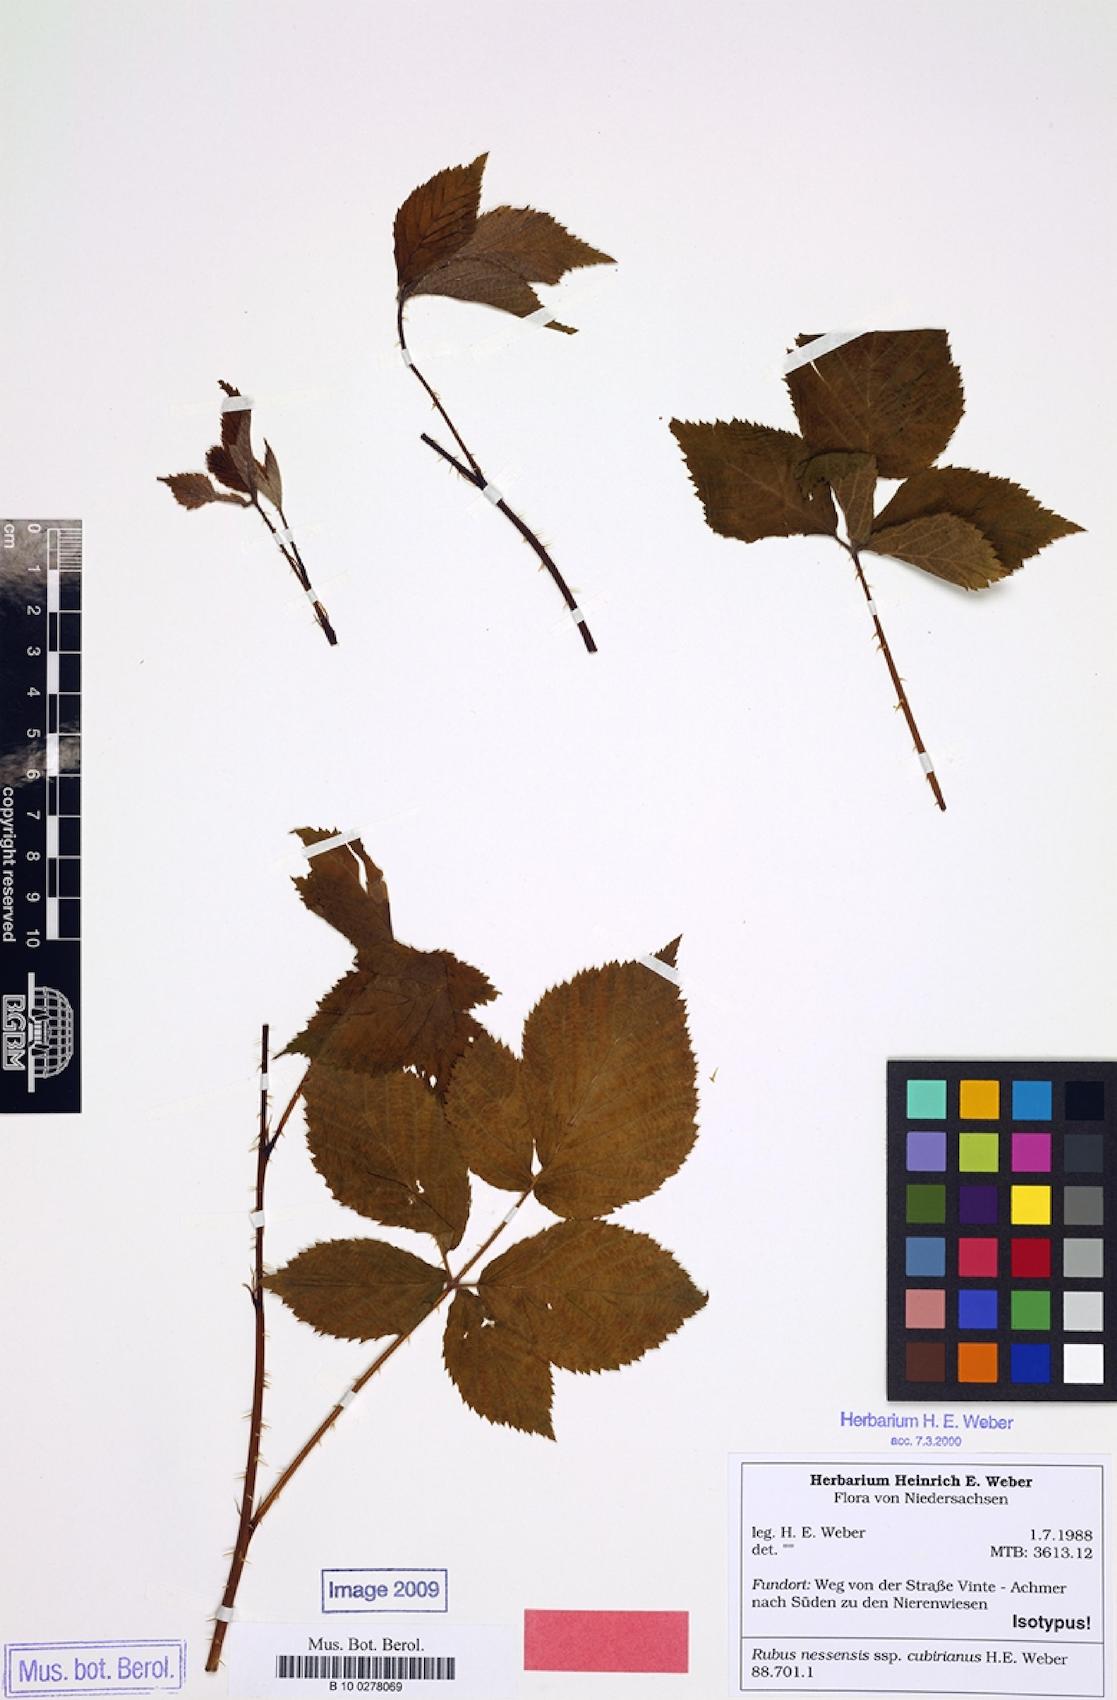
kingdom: Plantae
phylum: Tracheophyta
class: Magnoliopsida
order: Rosales
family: Rosaceae
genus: Rubus
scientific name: Rubus cubirianus
